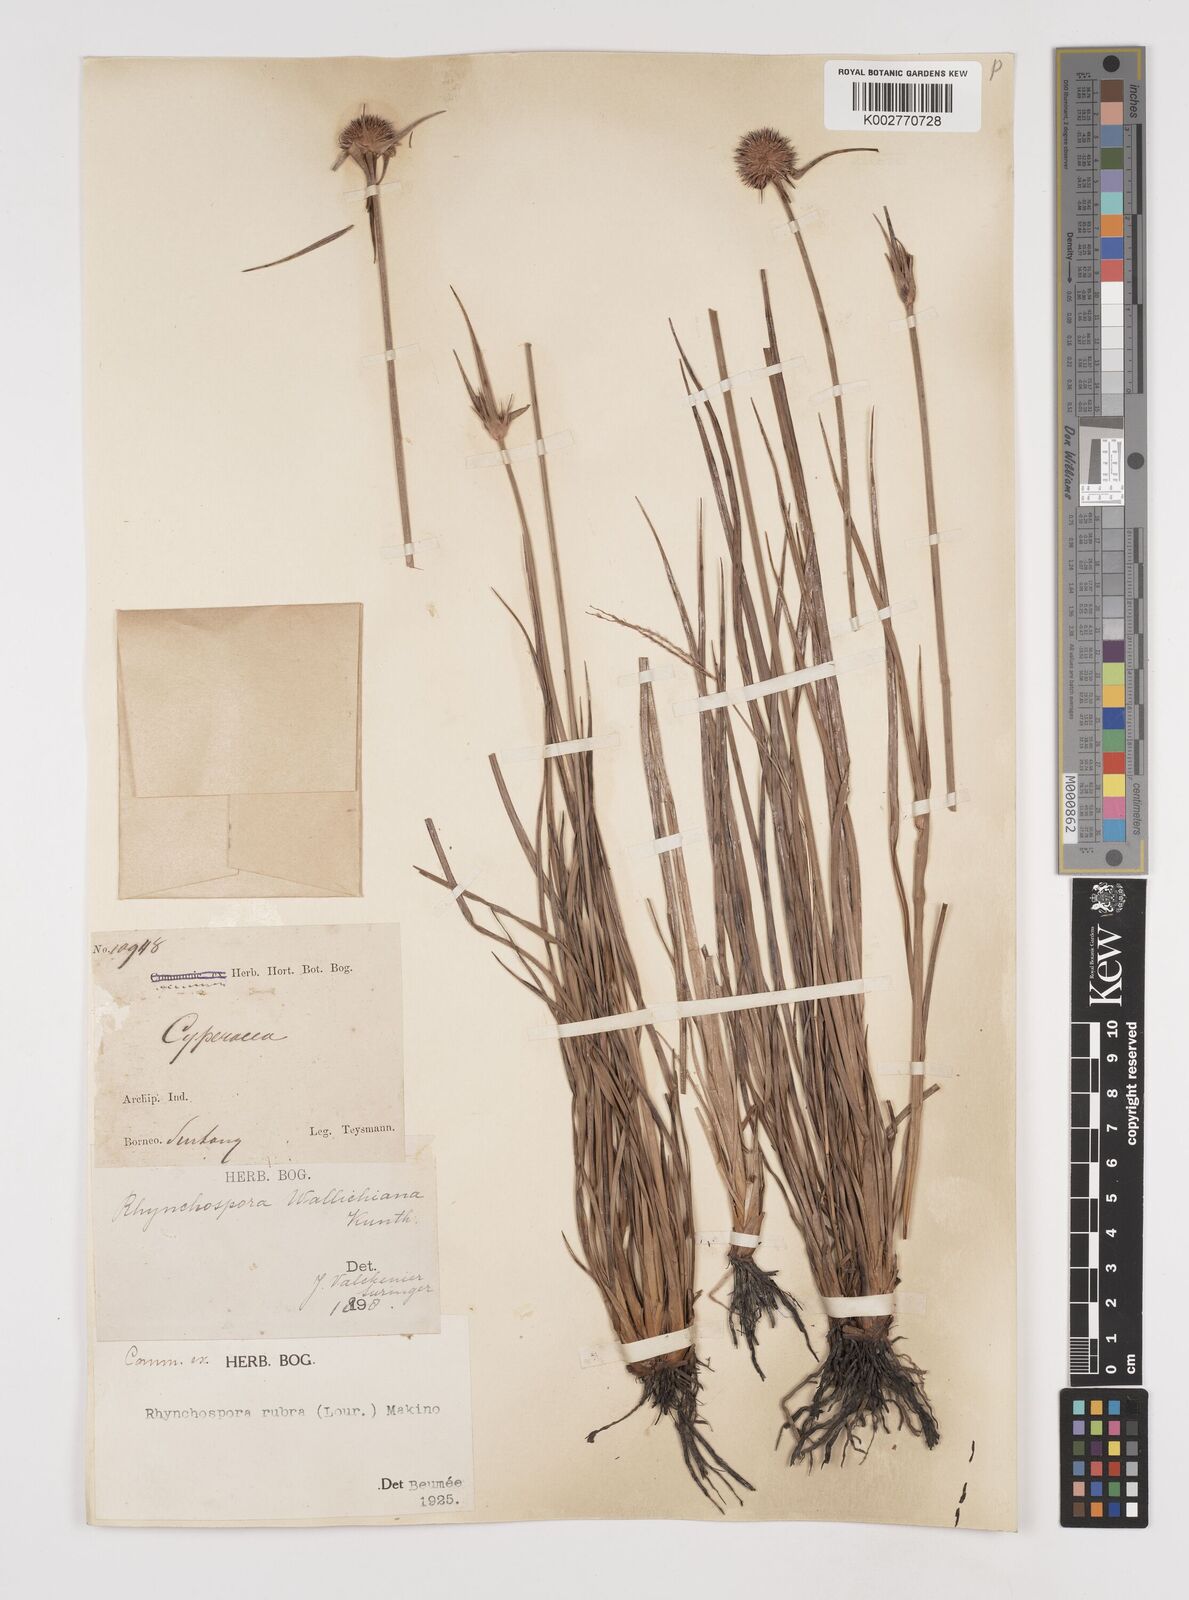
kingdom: Plantae
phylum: Tracheophyta
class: Liliopsida
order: Poales
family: Cyperaceae
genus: Rhynchospora
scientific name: Rhynchospora rubra
